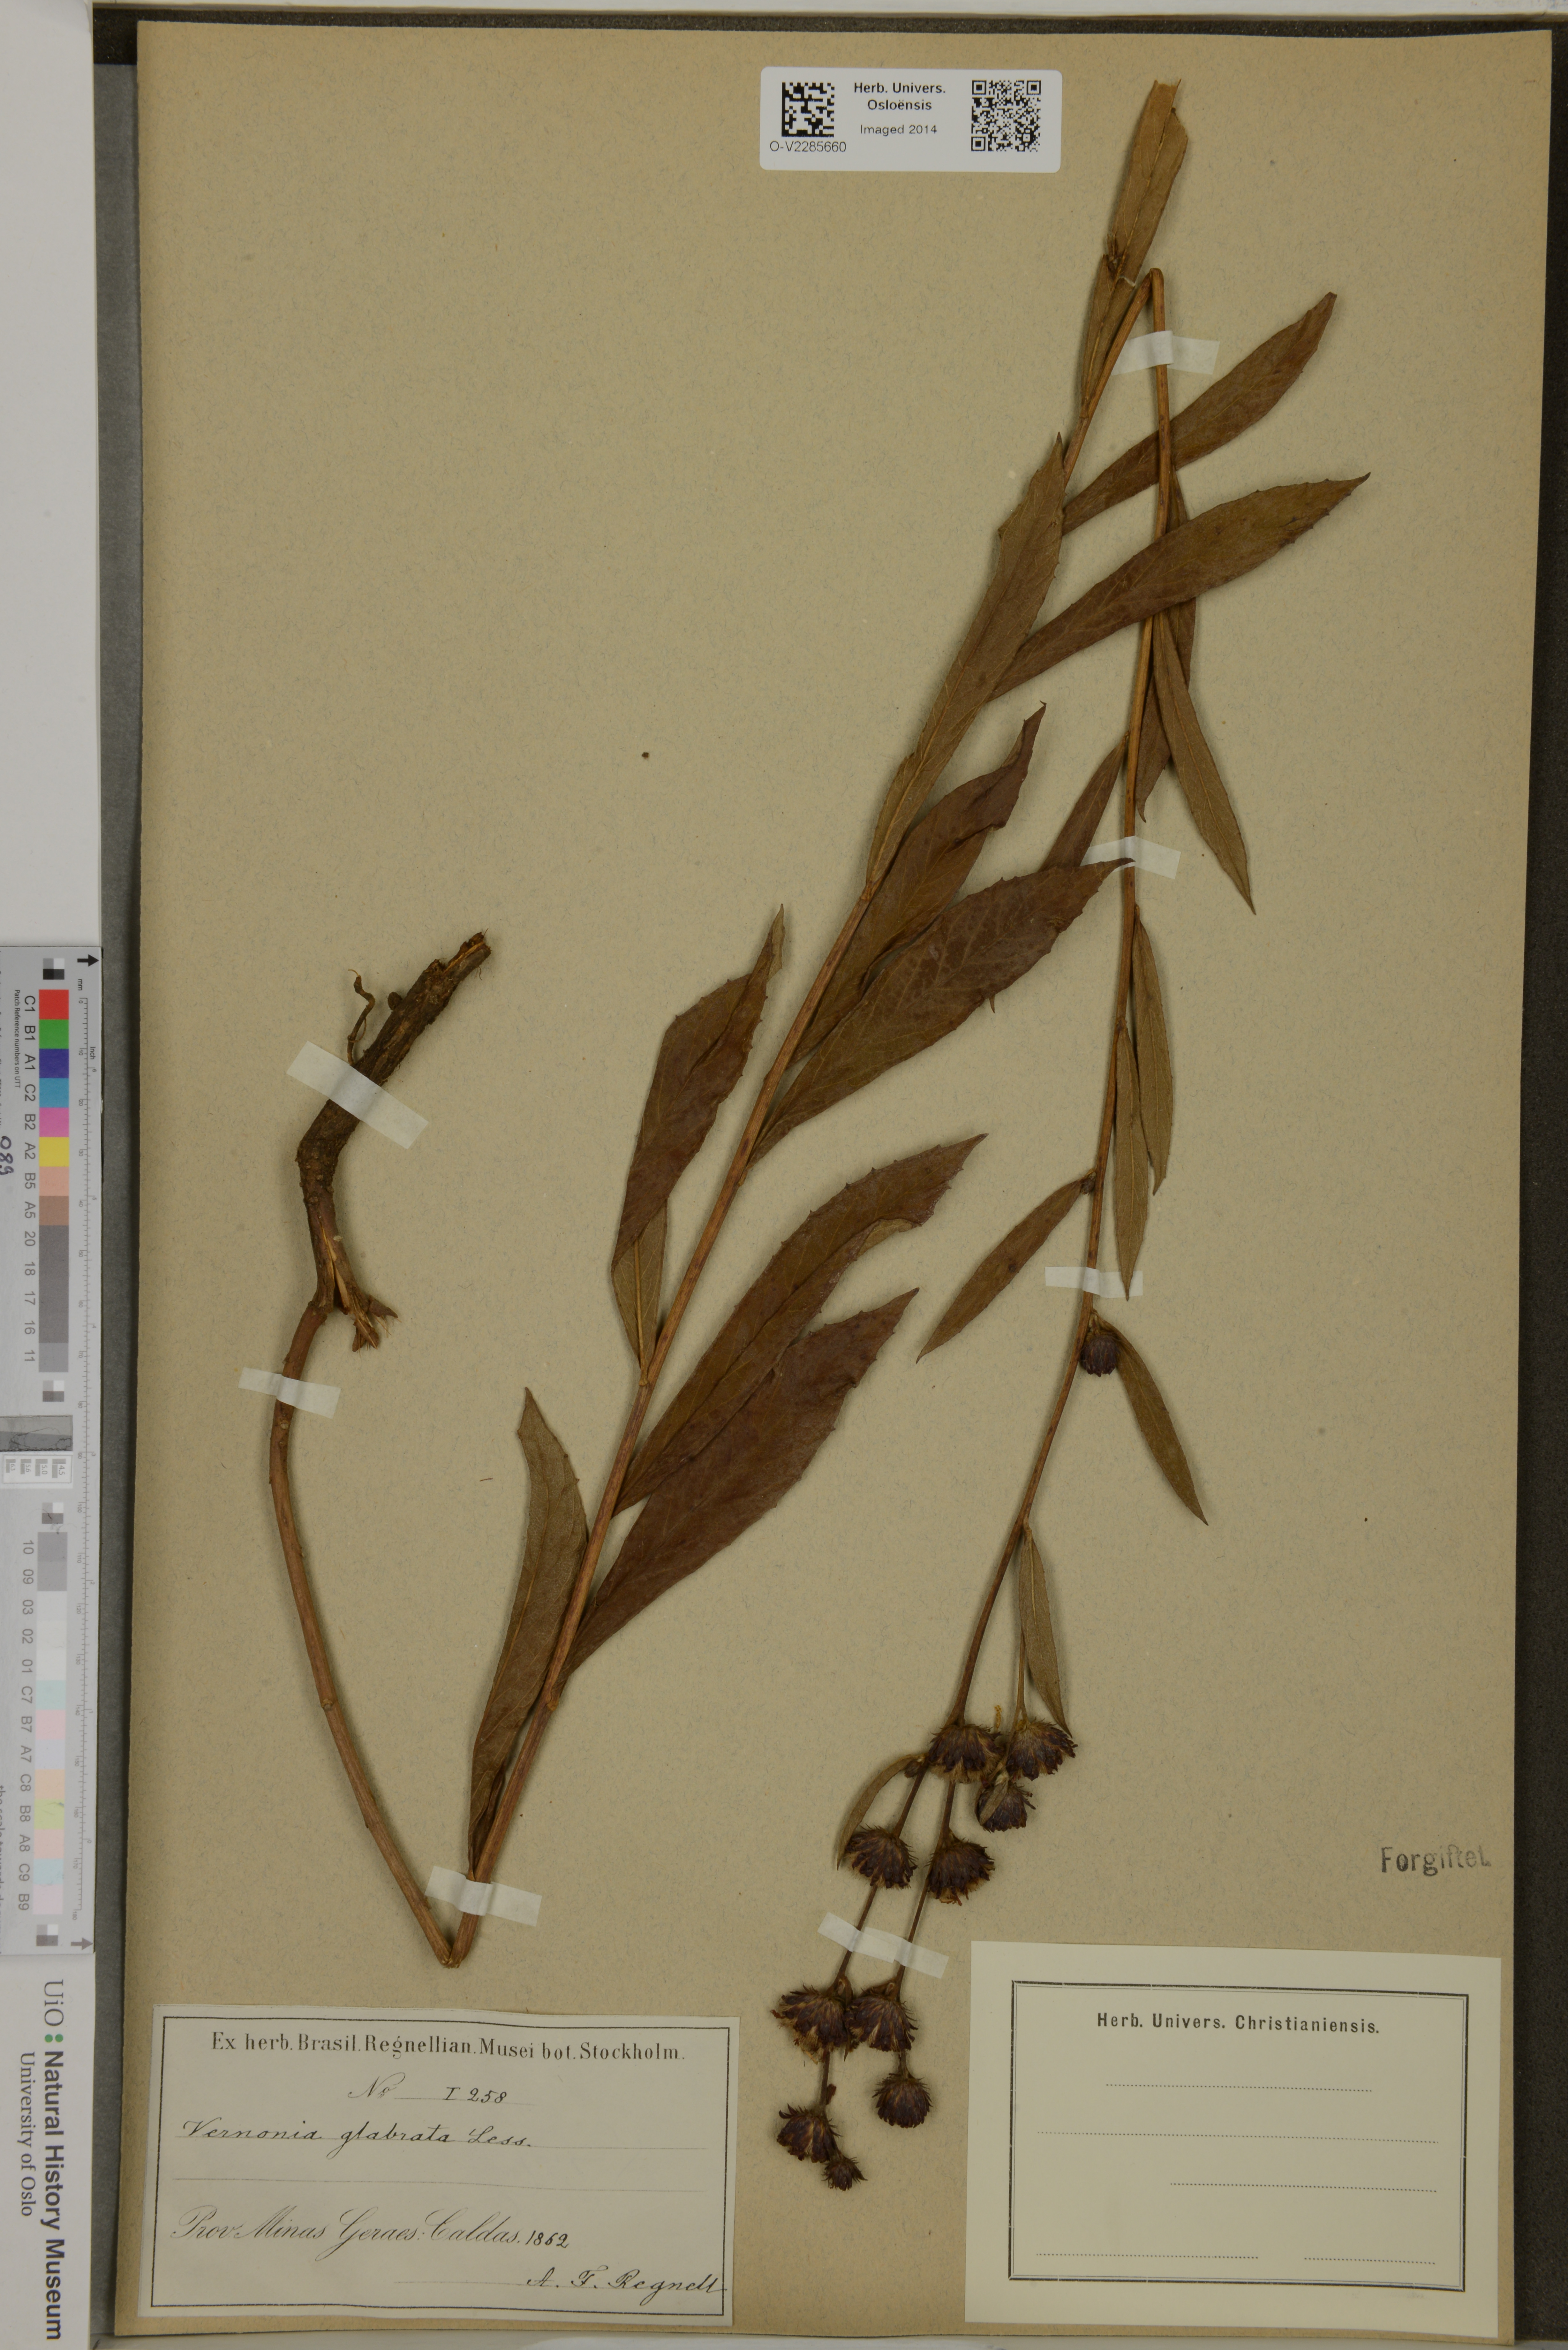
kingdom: Plantae
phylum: Tracheophyta
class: Magnoliopsida
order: Asterales
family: Asteraceae
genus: Lessingianthus
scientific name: Lessingianthus glabratus
